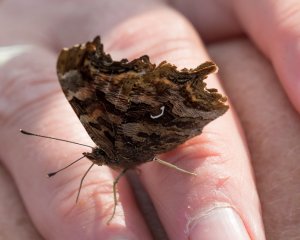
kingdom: Animalia
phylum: Arthropoda
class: Insecta
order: Lepidoptera
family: Nymphalidae
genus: Polygonia
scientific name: Polygonia satyrus
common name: Satyr Comma
